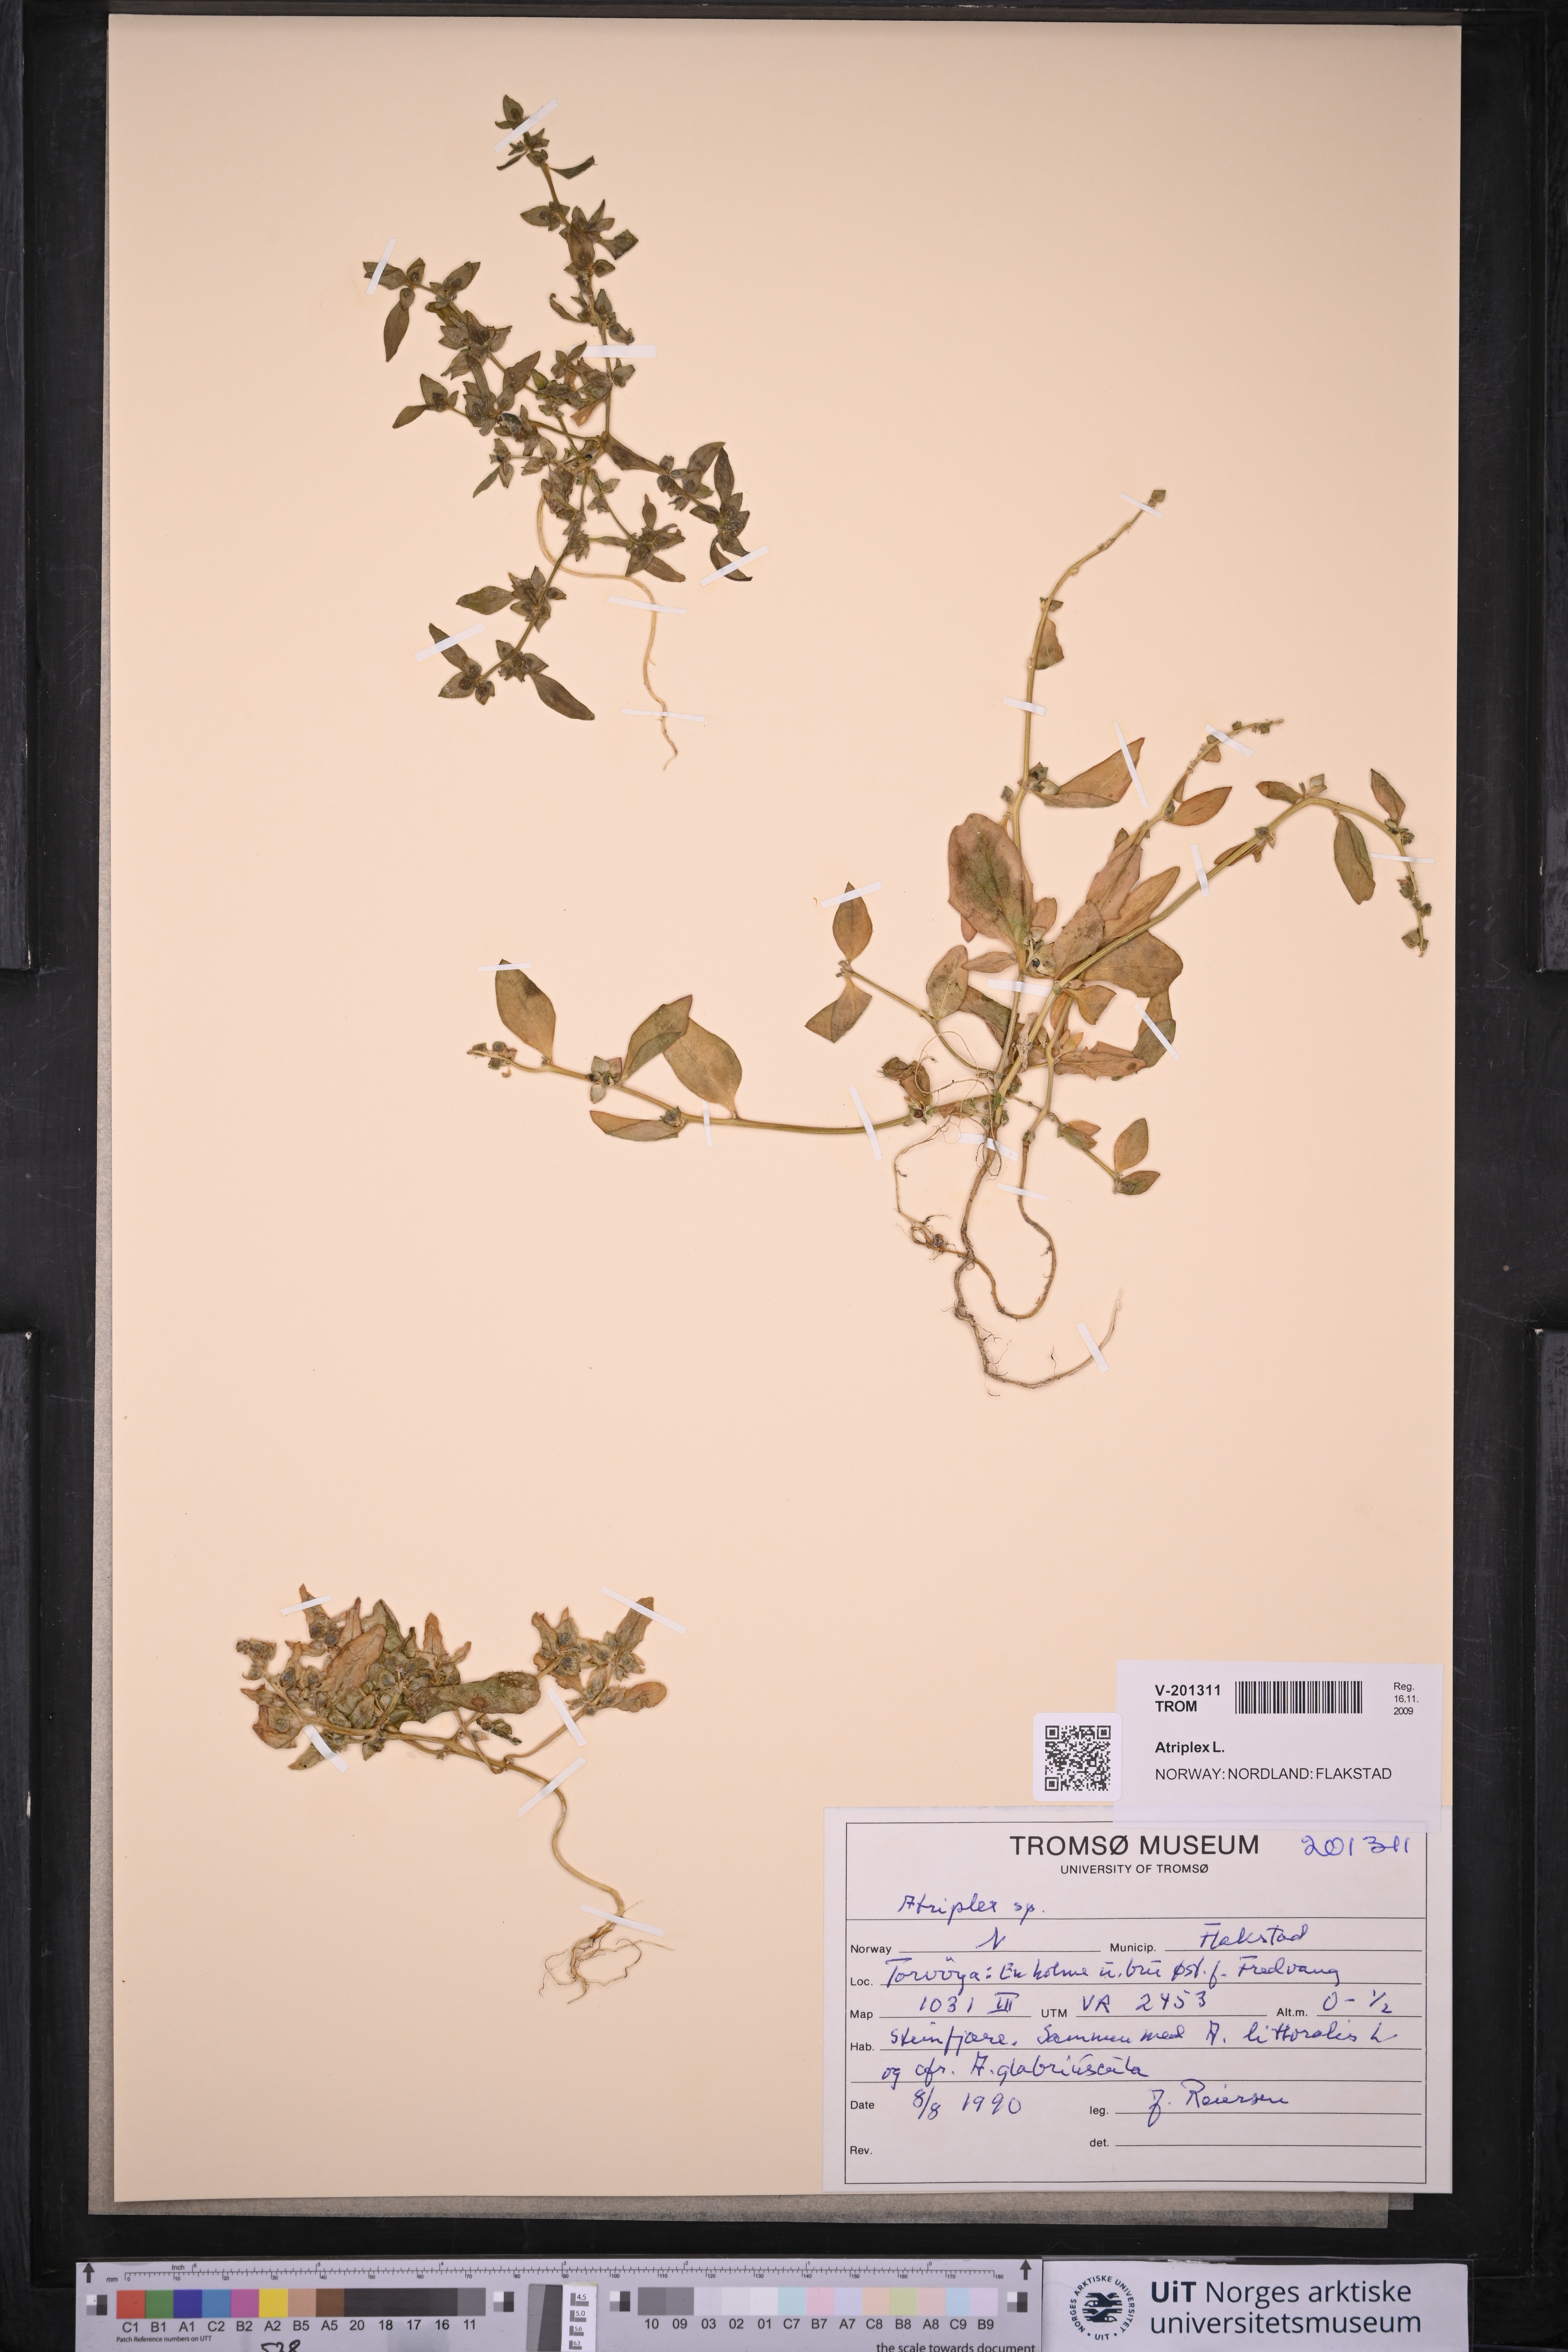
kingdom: Plantae
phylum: Tracheophyta
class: Magnoliopsida
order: Caryophyllales
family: Amaranthaceae
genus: Atriplex
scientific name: Atriplex
